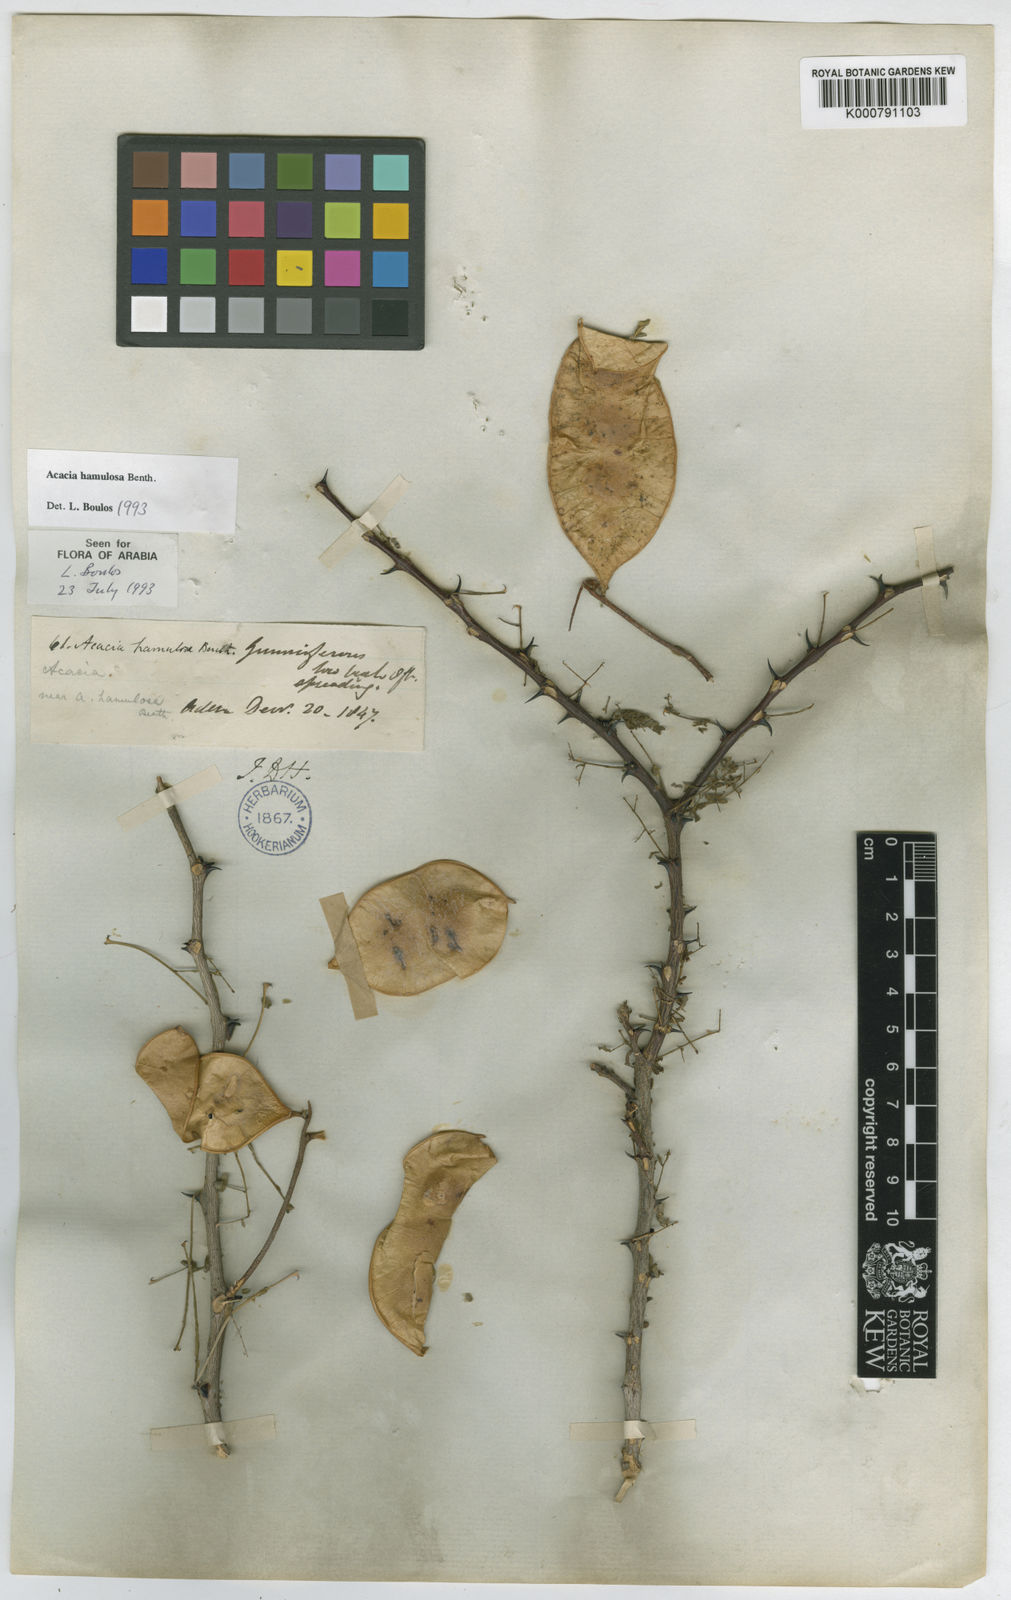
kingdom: Plantae
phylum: Tracheophyta
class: Magnoliopsida
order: Fabales
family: Fabaceae
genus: Senegalia
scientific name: Senegalia hamulosa
